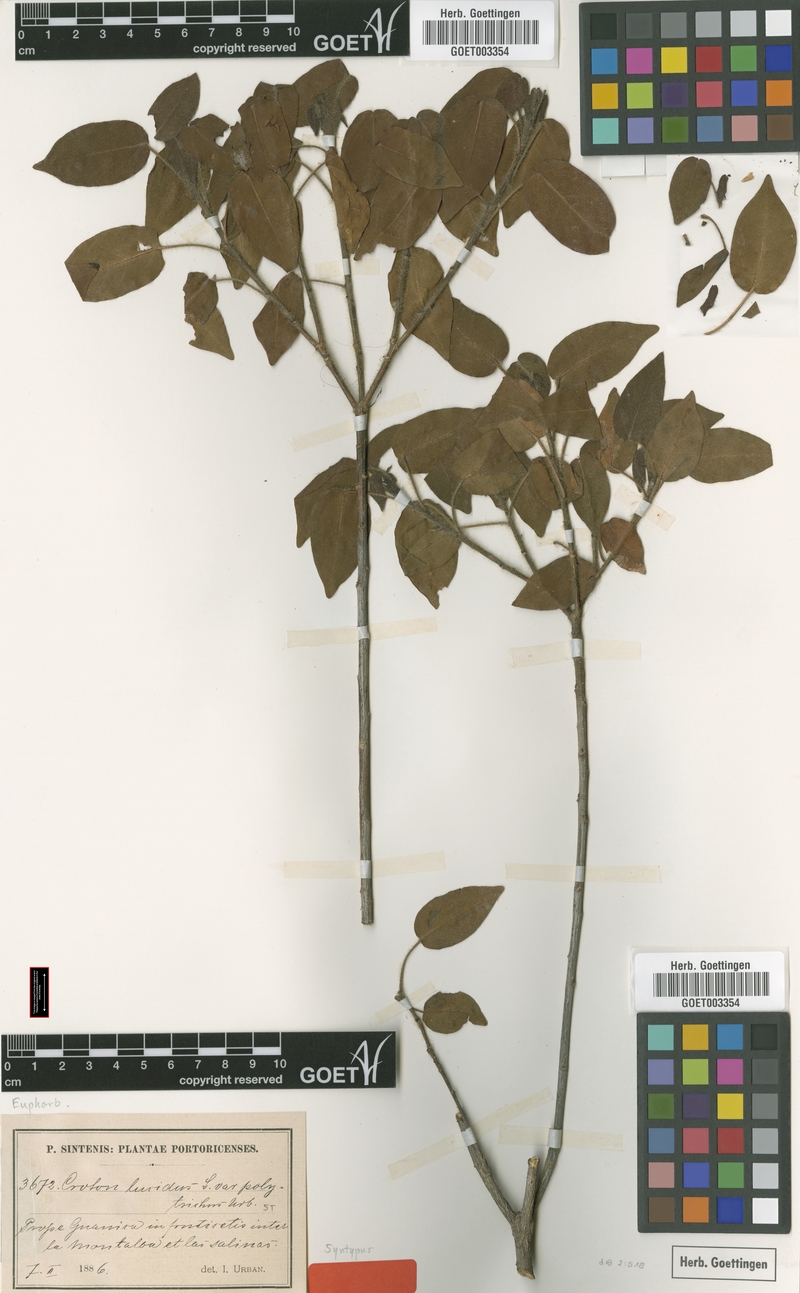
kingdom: Plantae
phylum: Tracheophyta
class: Magnoliopsida
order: Malpighiales
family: Euphorbiaceae
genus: Croton
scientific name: Croton glabellus
